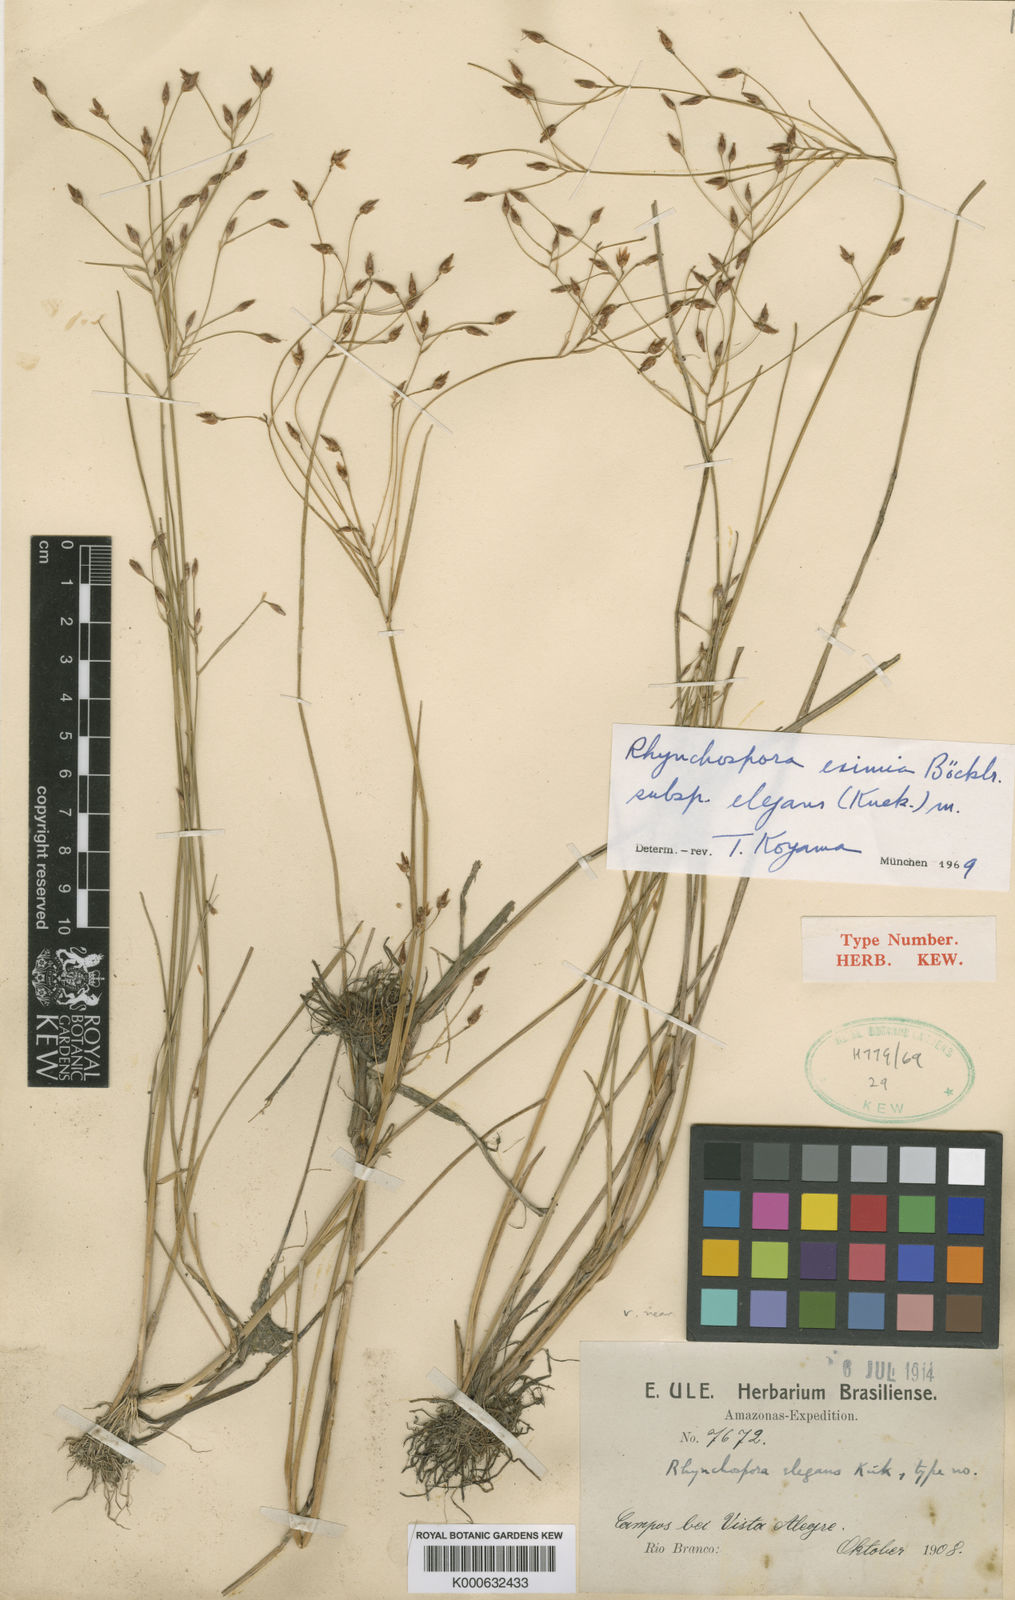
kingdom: Plantae
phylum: Tracheophyta
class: Liliopsida
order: Poales
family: Cyperaceae
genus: Rhynchospora
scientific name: Rhynchospora eximia
